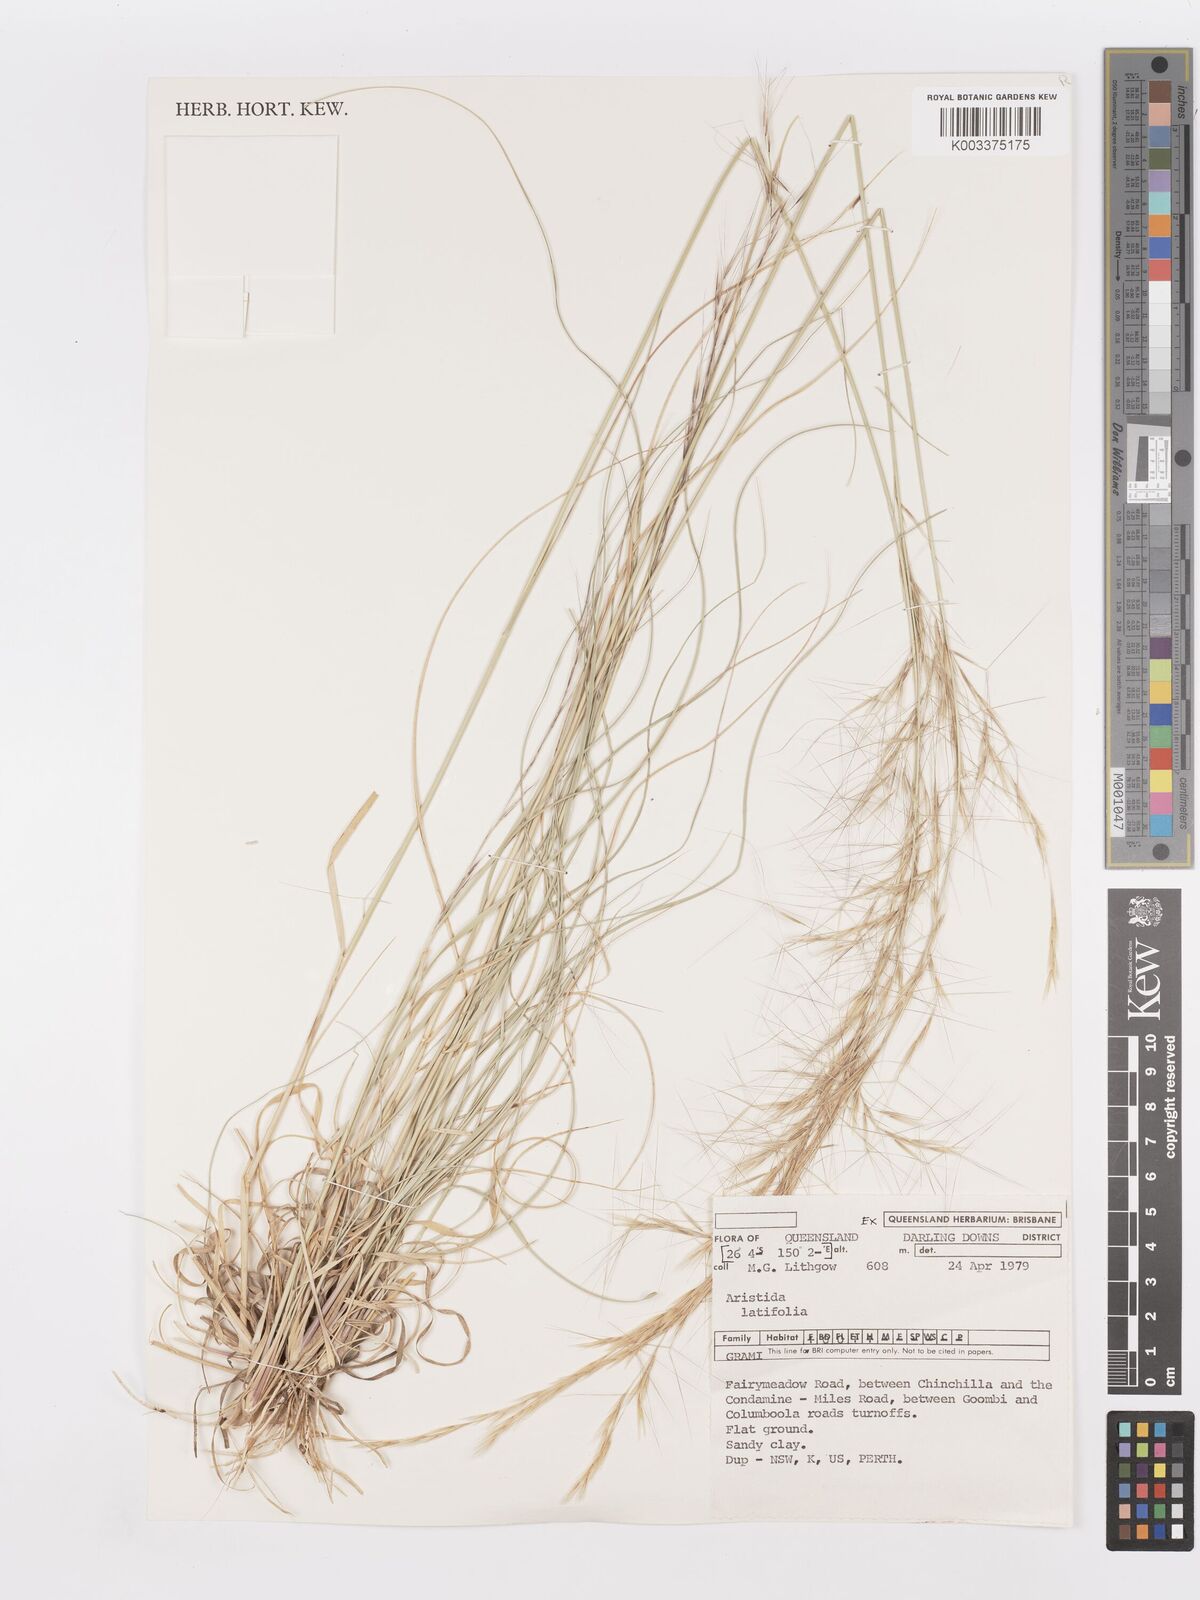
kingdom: Plantae
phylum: Tracheophyta
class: Liliopsida
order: Poales
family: Poaceae
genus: Aristida
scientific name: Aristida latifolia
